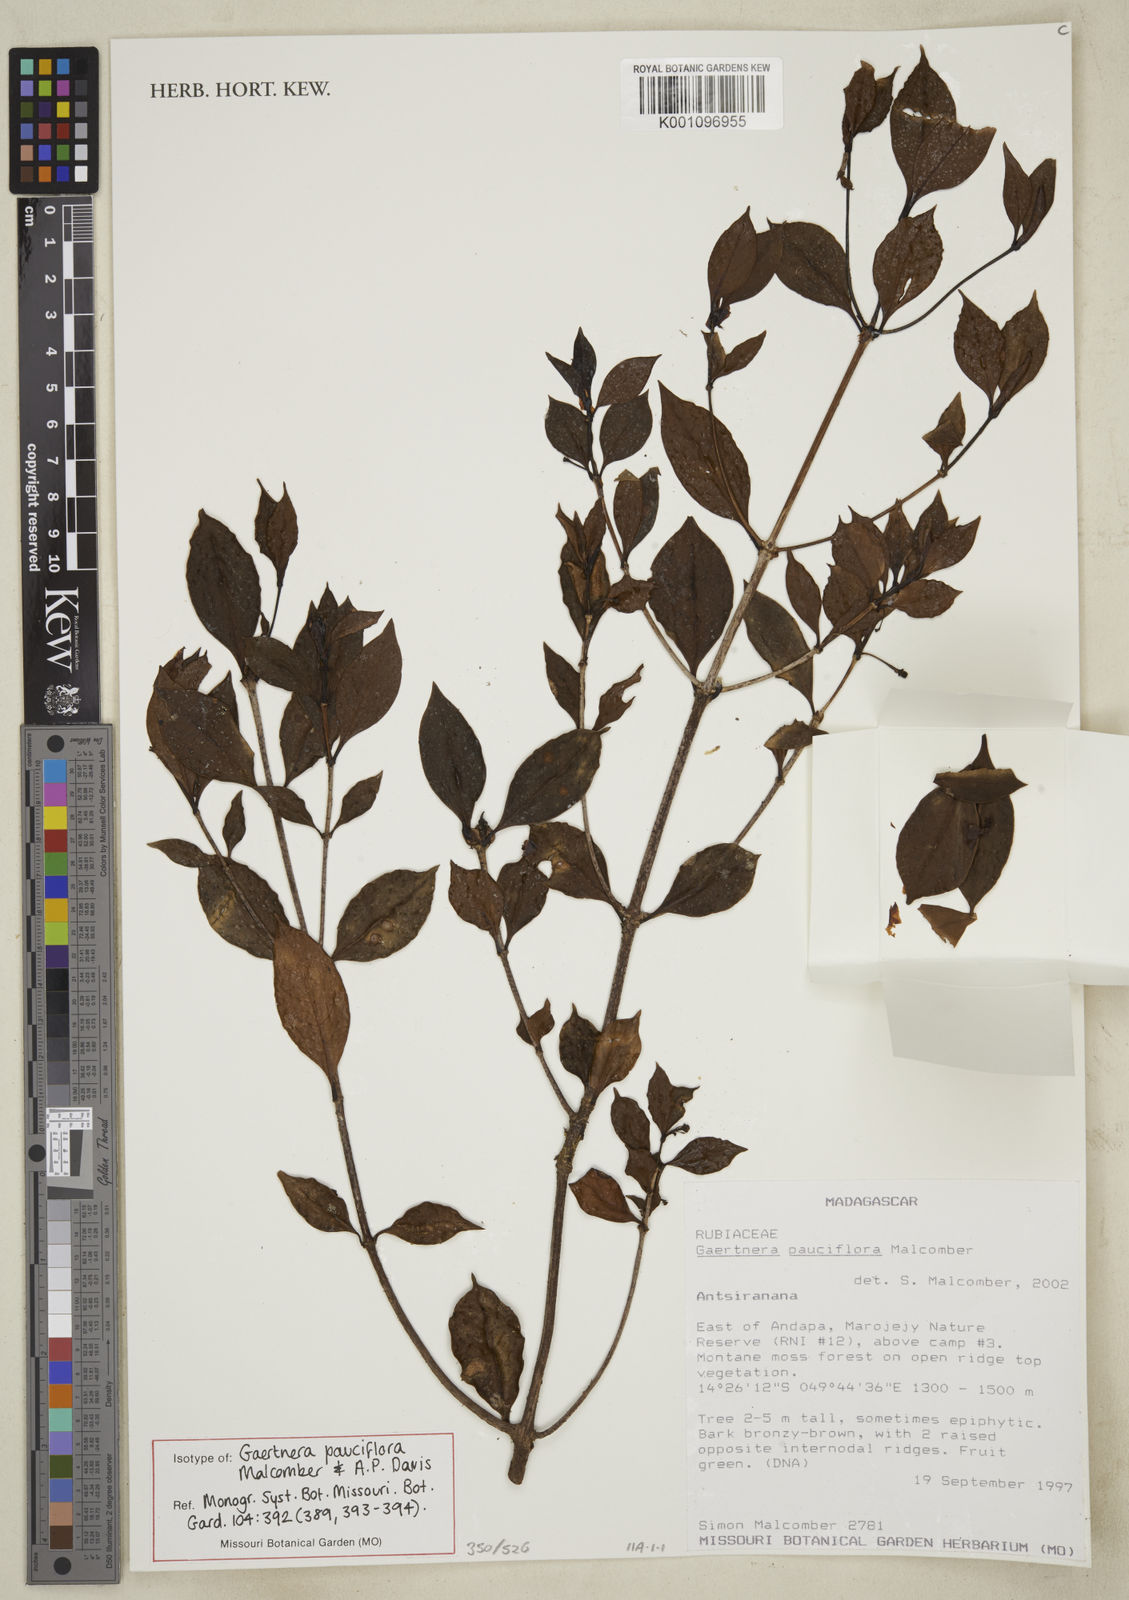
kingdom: Plantae
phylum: Tracheophyta
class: Magnoliopsida
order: Gentianales
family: Rubiaceae
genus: Gaertnera
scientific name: Gaertnera pauciflora
